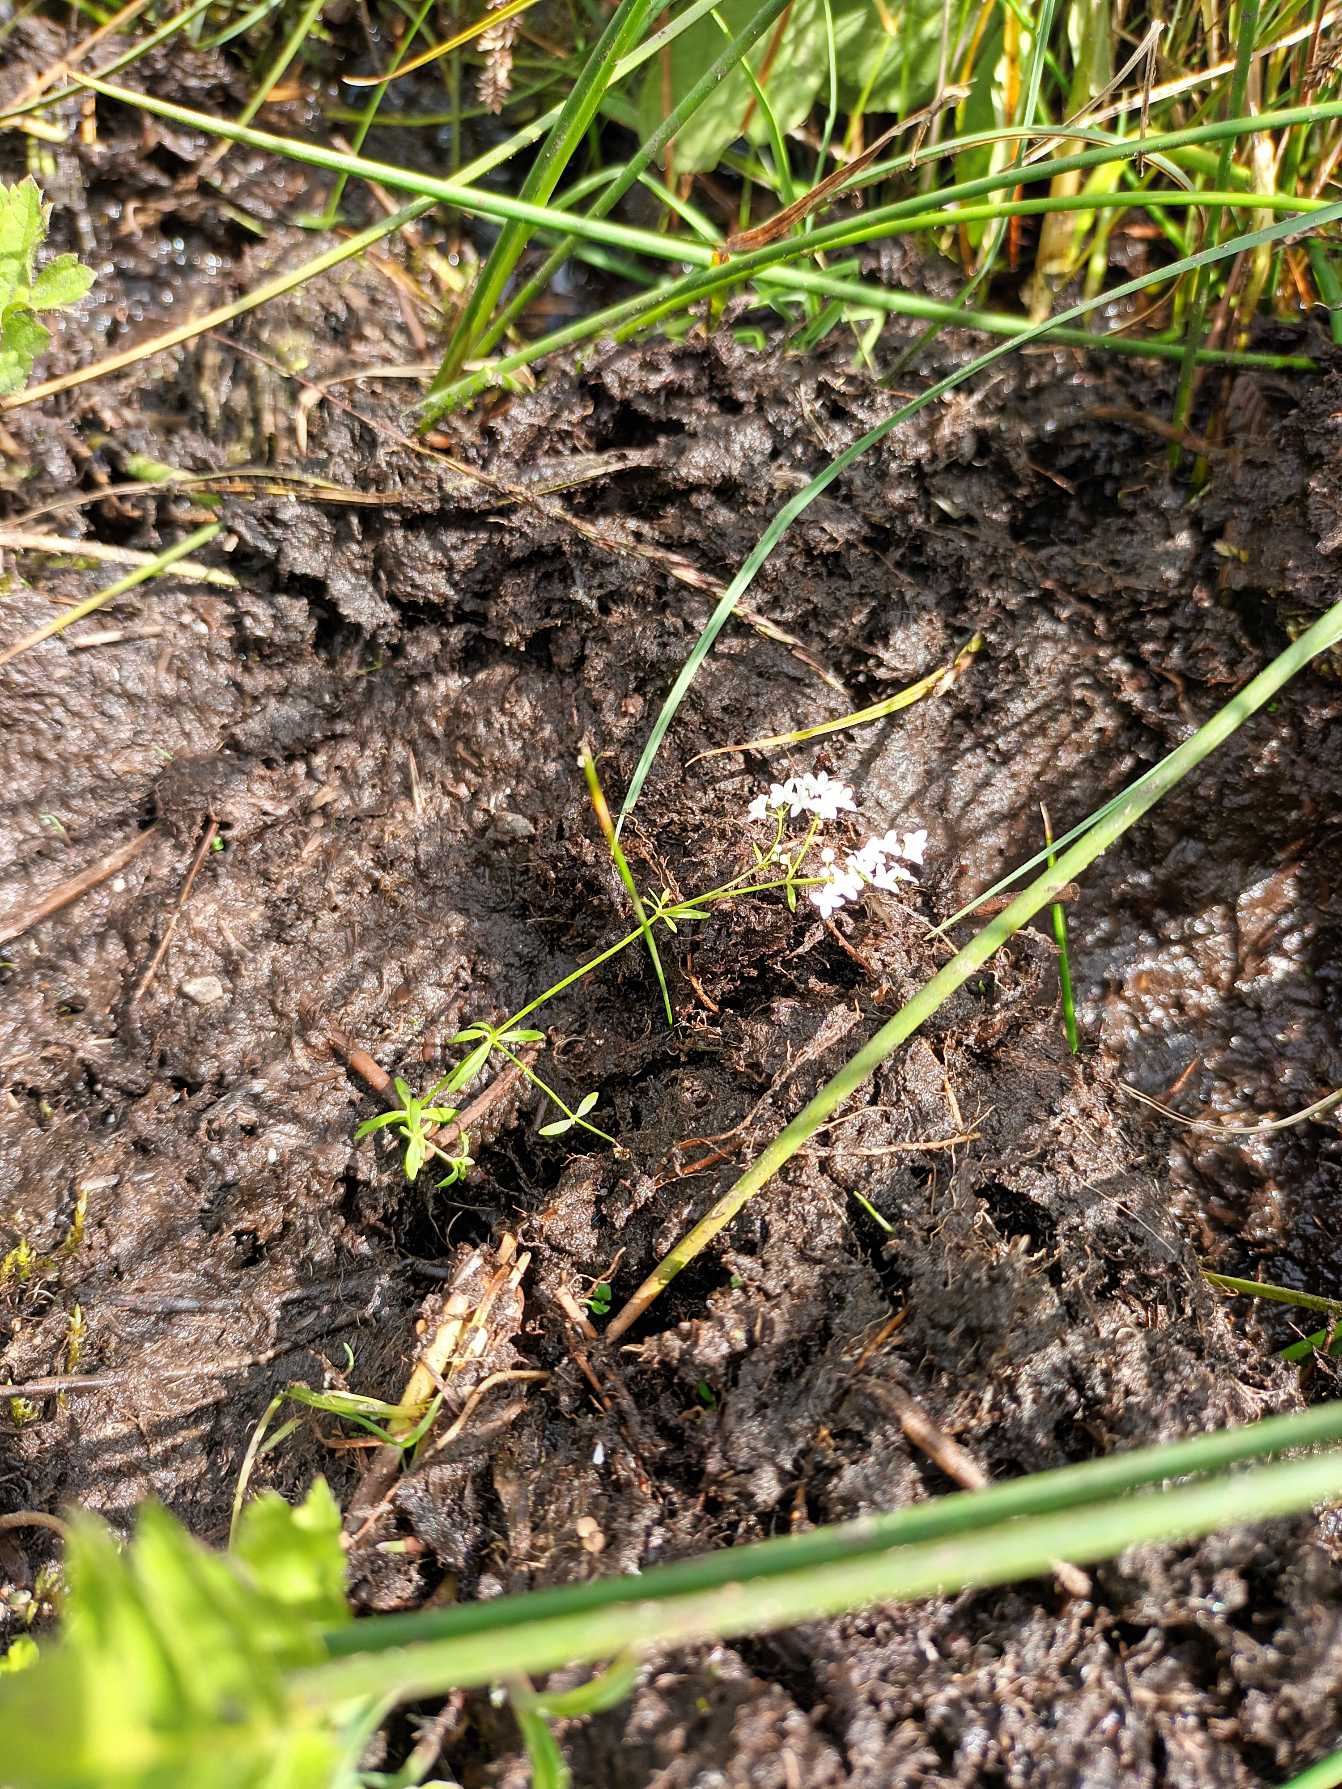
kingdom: Plantae
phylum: Tracheophyta
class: Magnoliopsida
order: Gentianales
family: Rubiaceae
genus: Galium
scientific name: Galium palustre
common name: Kær-snerre
